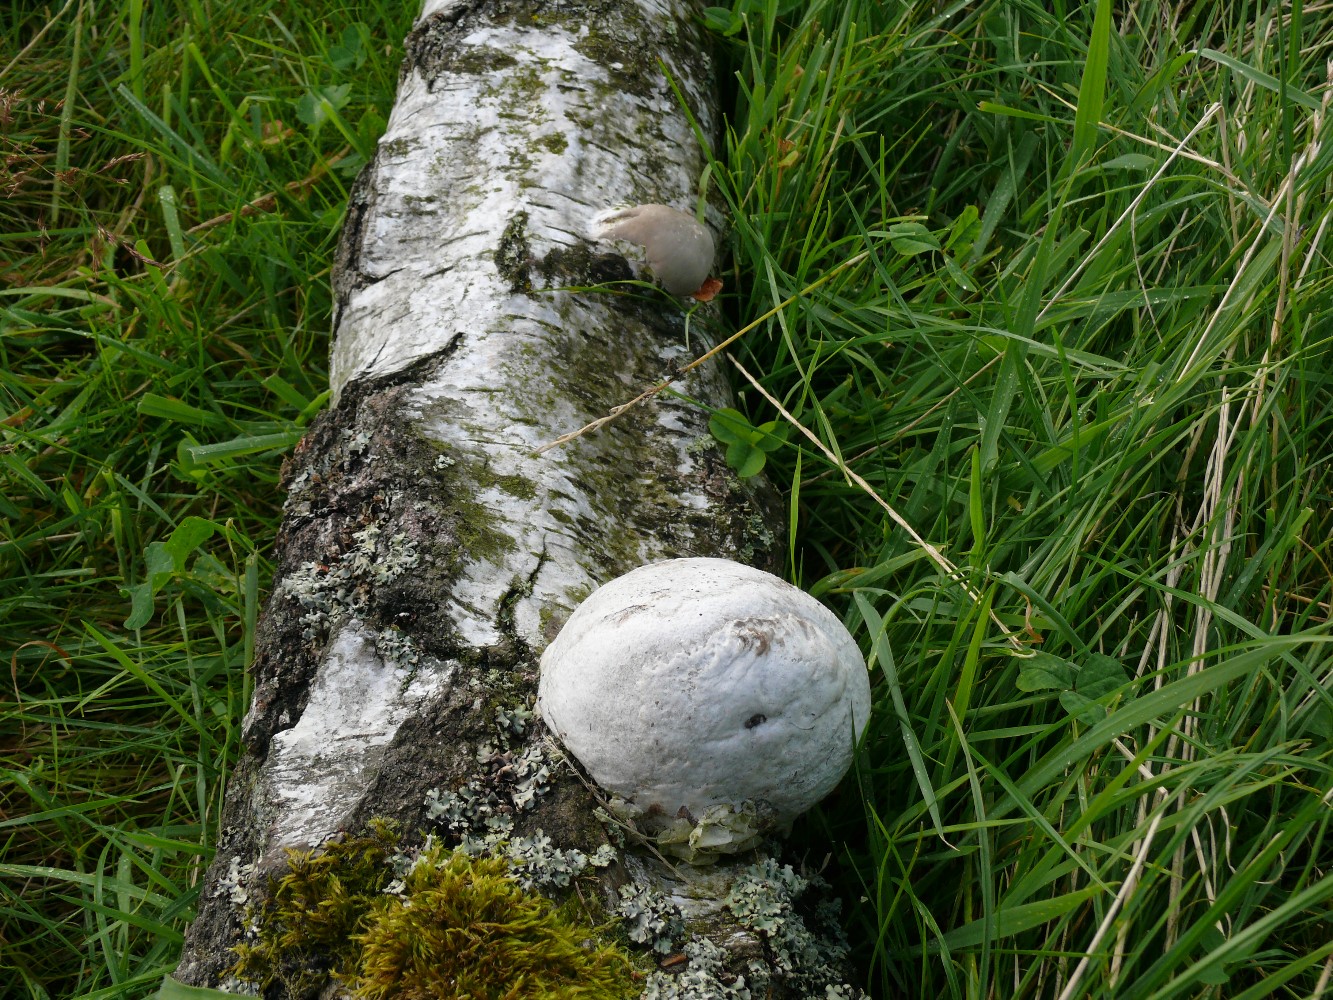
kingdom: Fungi
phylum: Basidiomycota
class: Agaricomycetes
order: Polyporales
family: Fomitopsidaceae
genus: Fomitopsis
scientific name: Fomitopsis betulina
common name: birkeporesvamp
